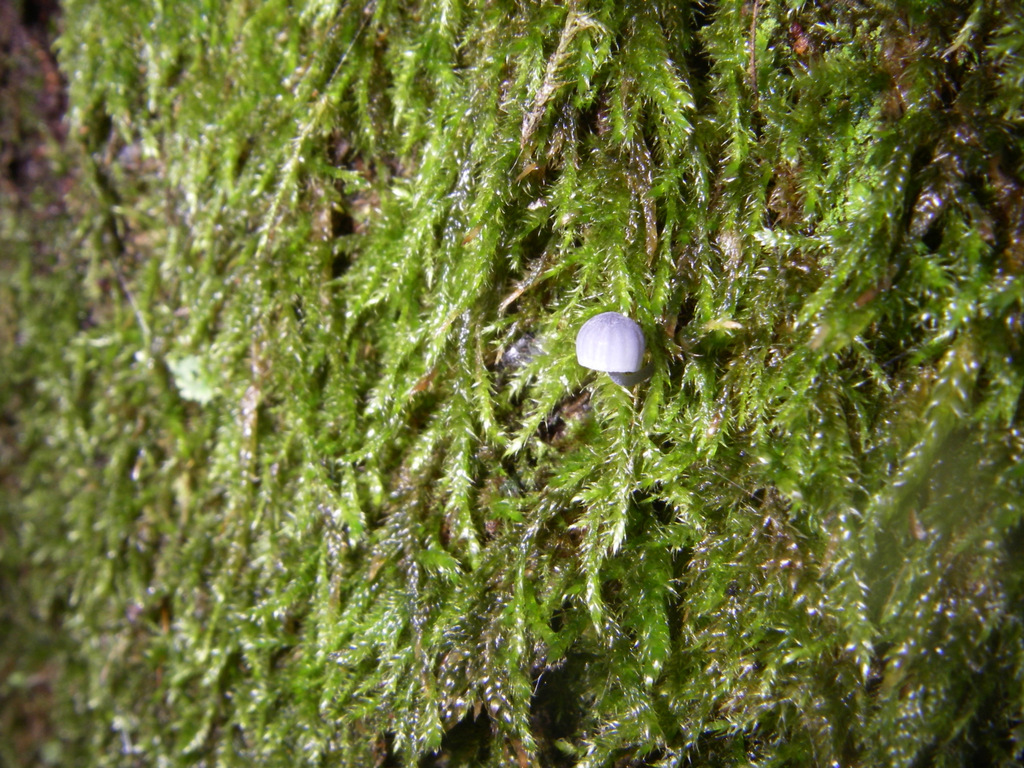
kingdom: Fungi
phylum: Basidiomycota
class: Agaricomycetes
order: Agaricales
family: Mycenaceae
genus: Mycena
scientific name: Mycena pseudocorticola
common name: gråblå bark-huesvamp
